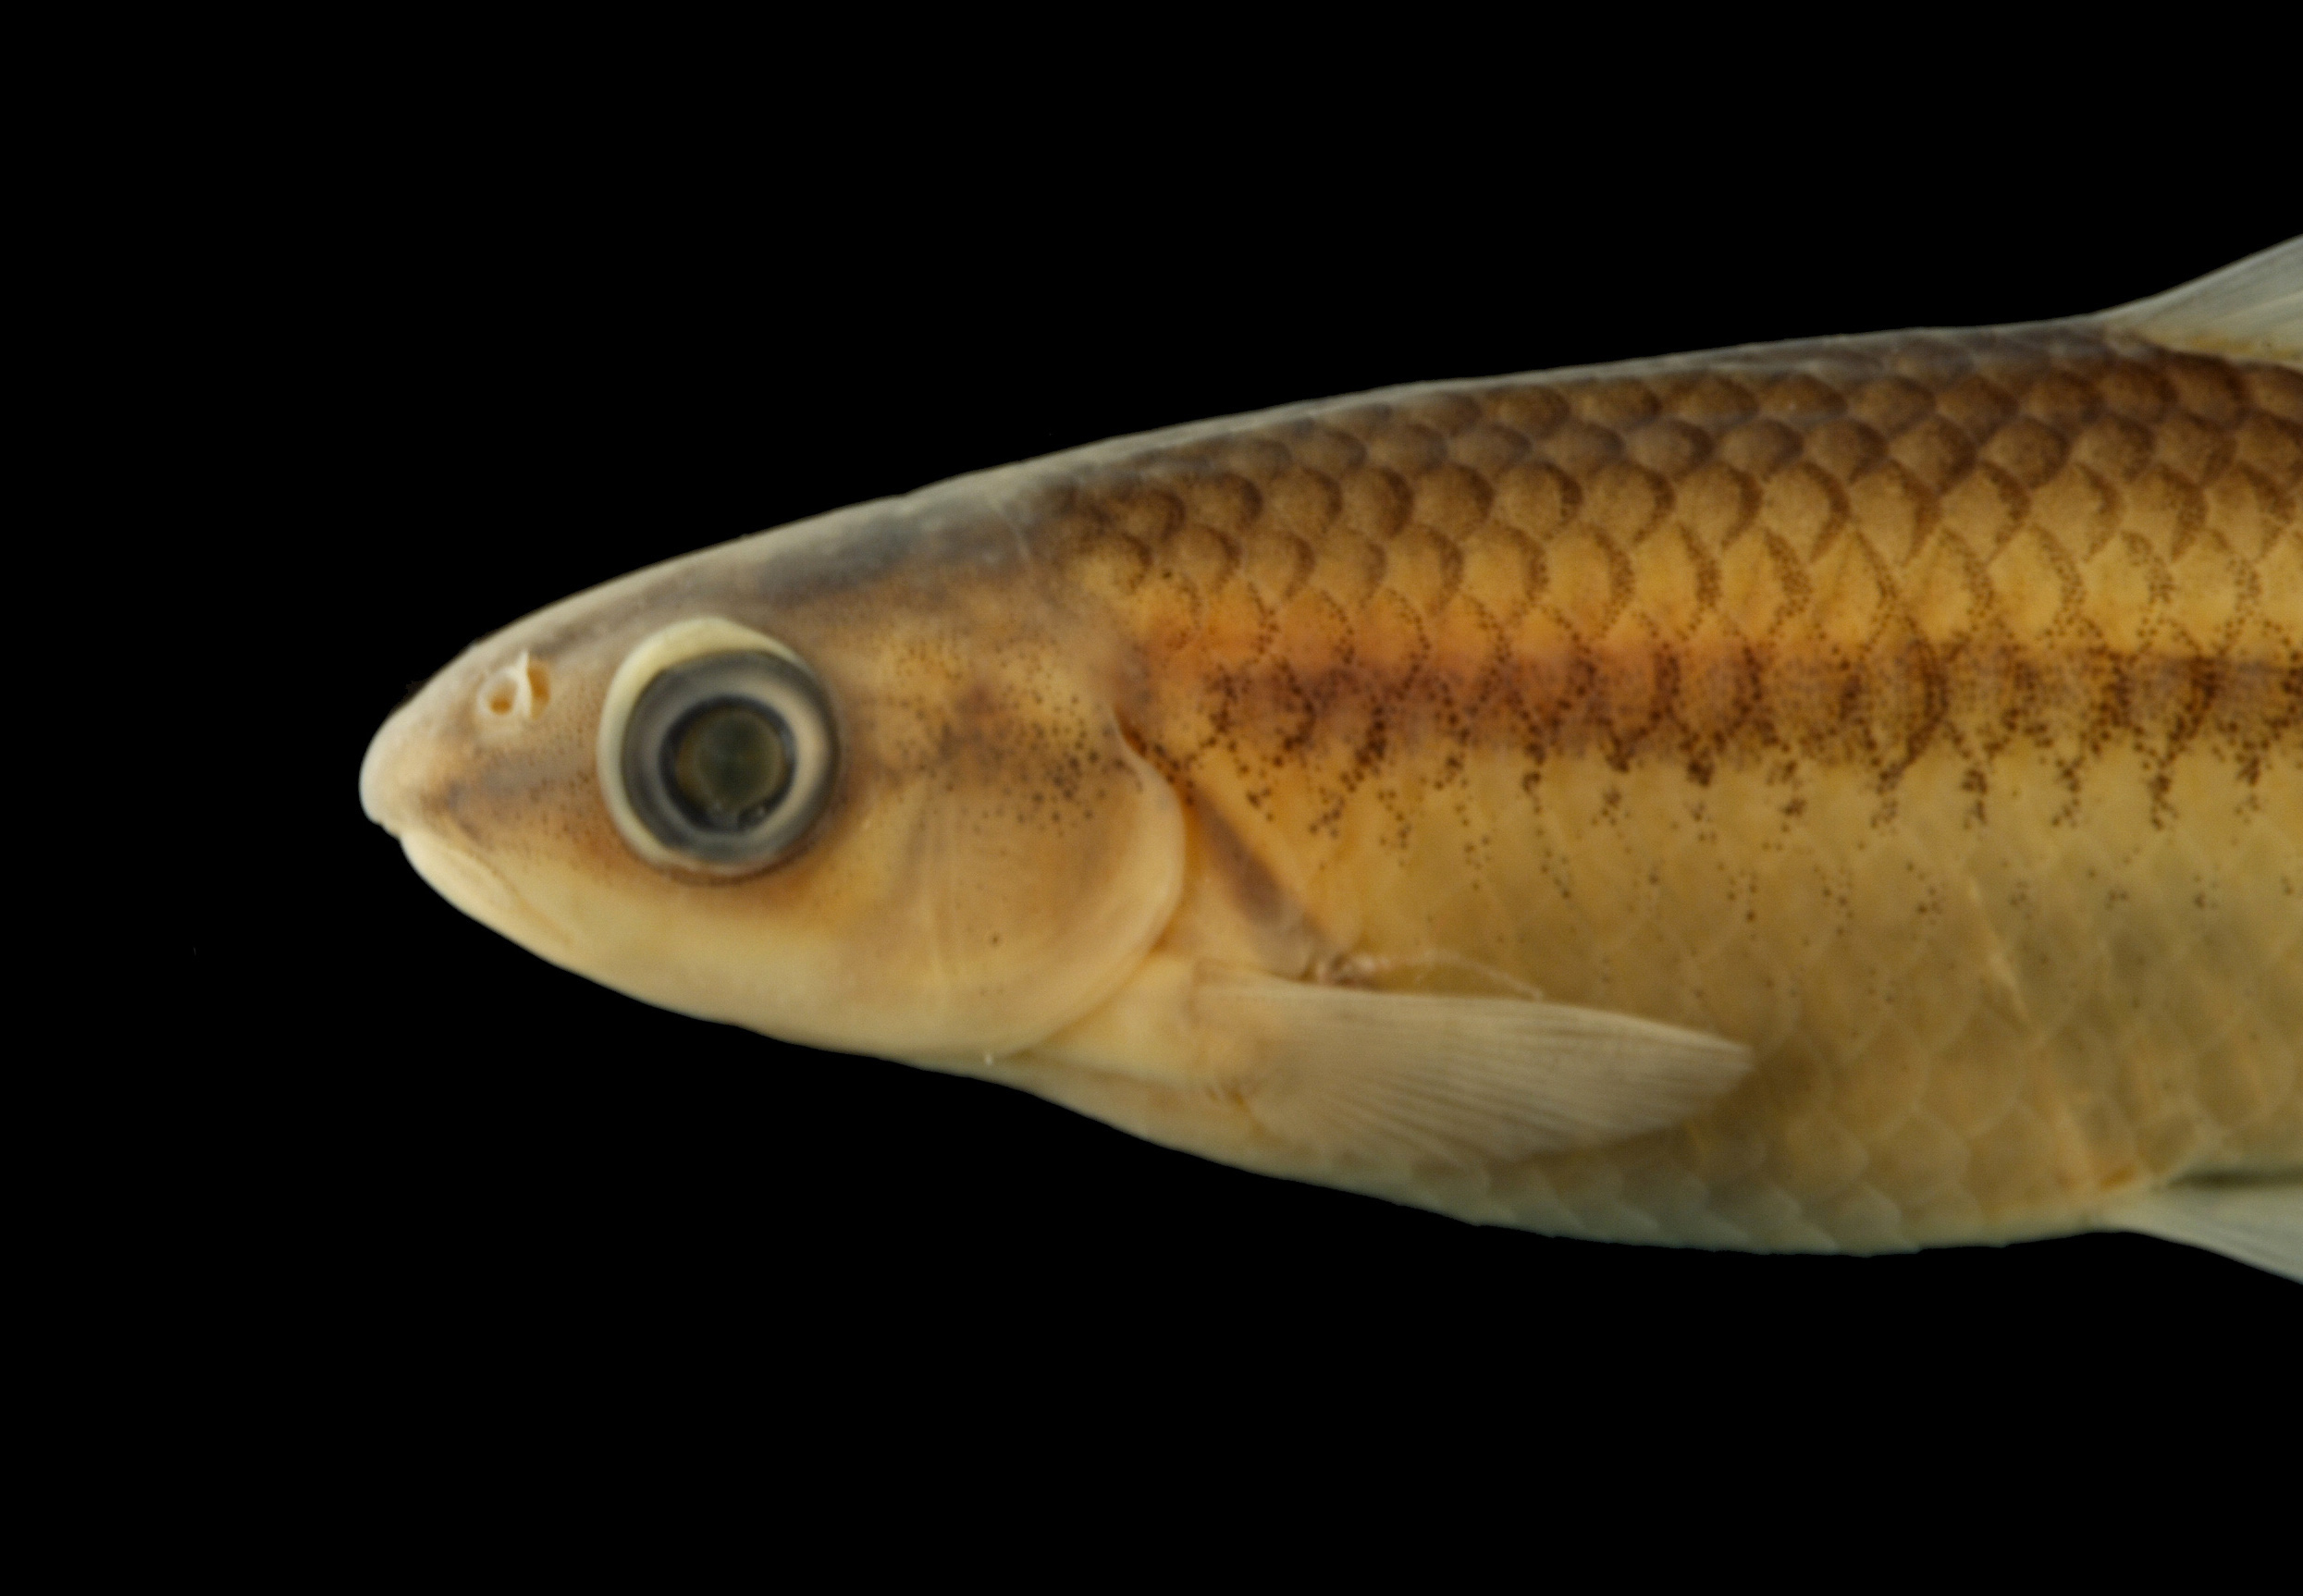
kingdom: Animalia
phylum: Chordata
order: Cypriniformes
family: Cyprinidae
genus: Dionda
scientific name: Dionda diaboli
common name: Devils river minnow
